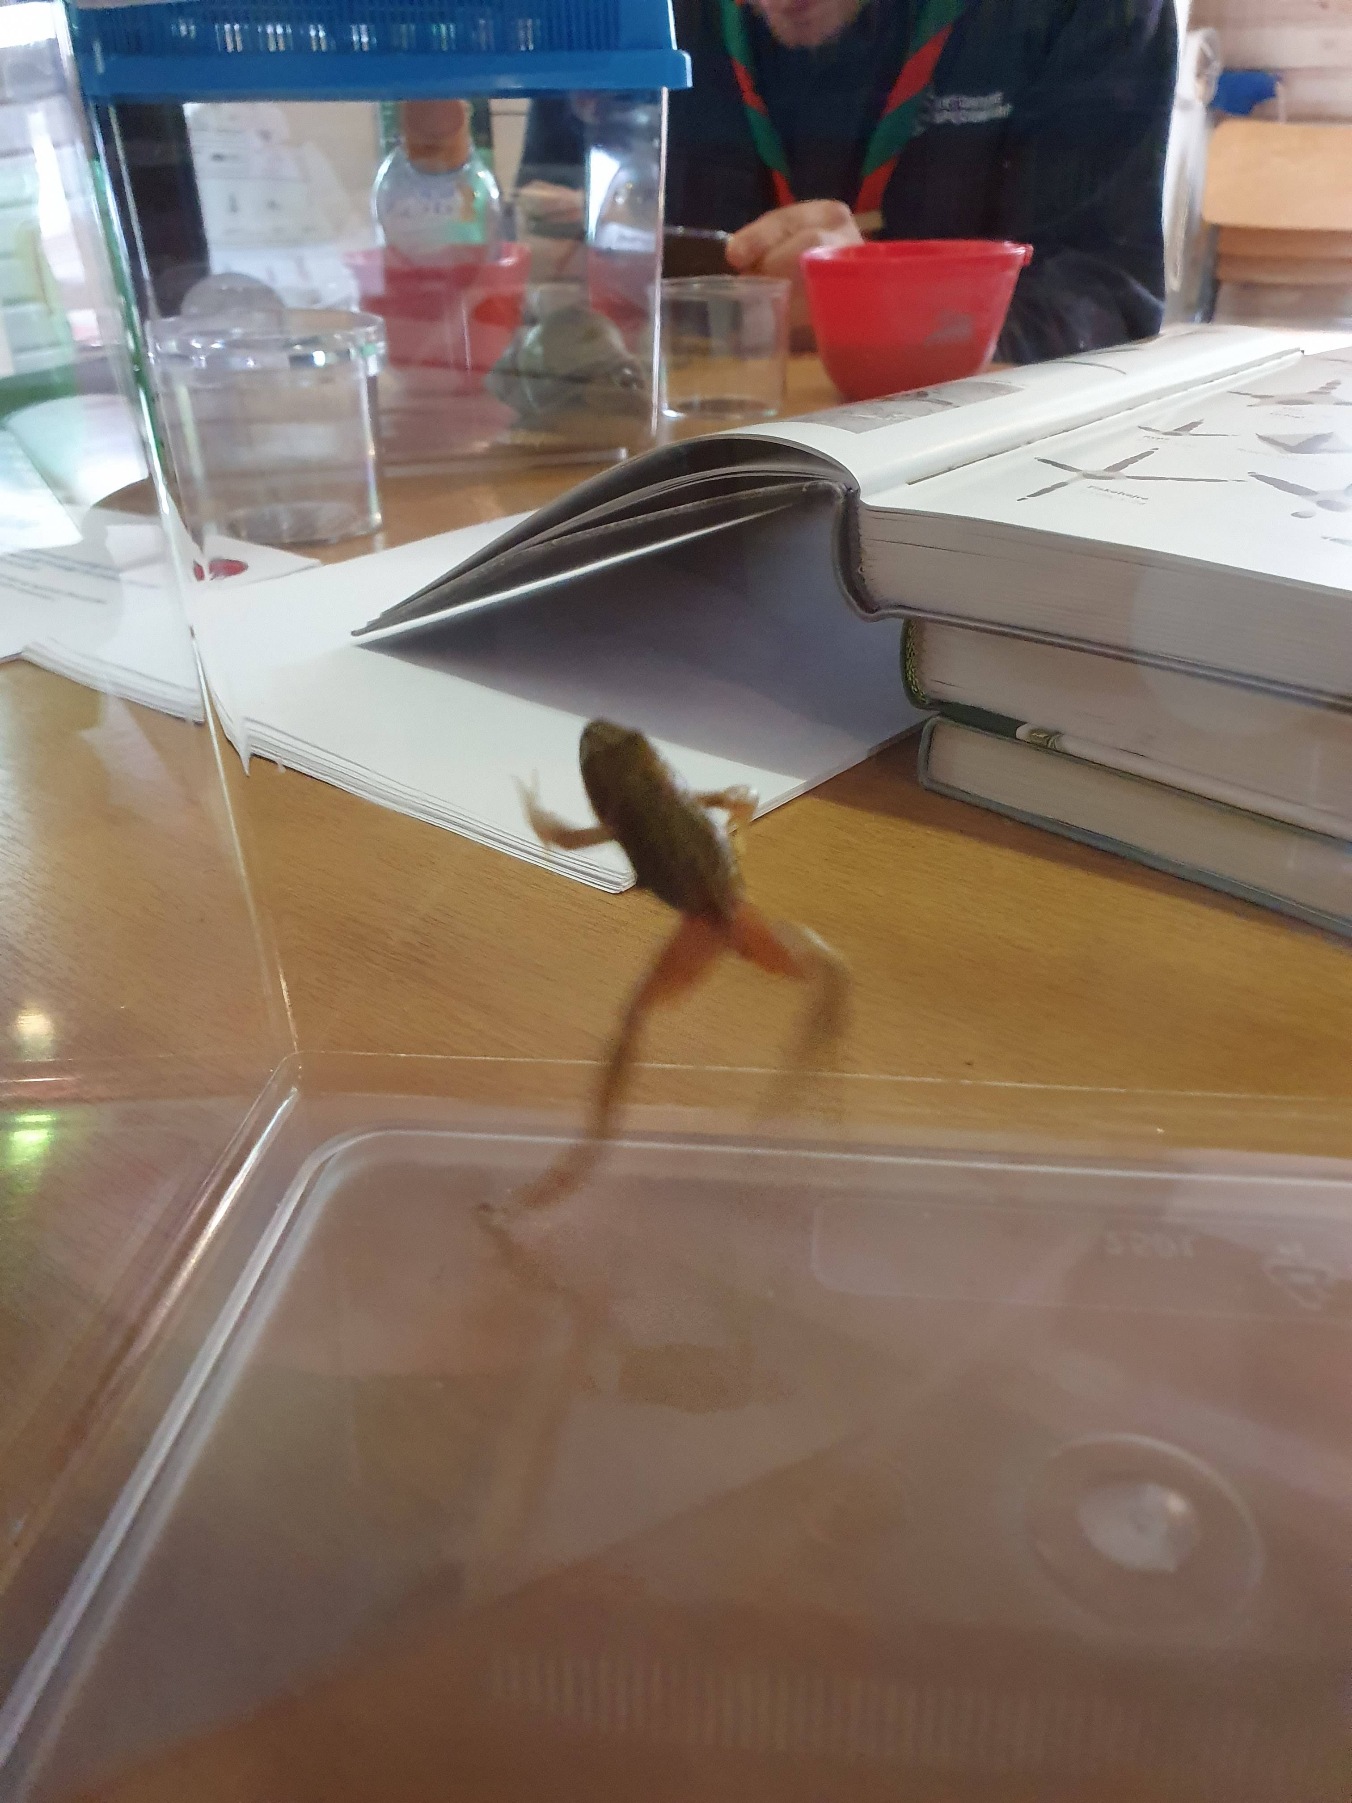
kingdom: Animalia
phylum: Chordata
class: Amphibia
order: Anura
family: Ranidae
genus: Rana
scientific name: Rana temporaria
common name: Butsnudet frø
